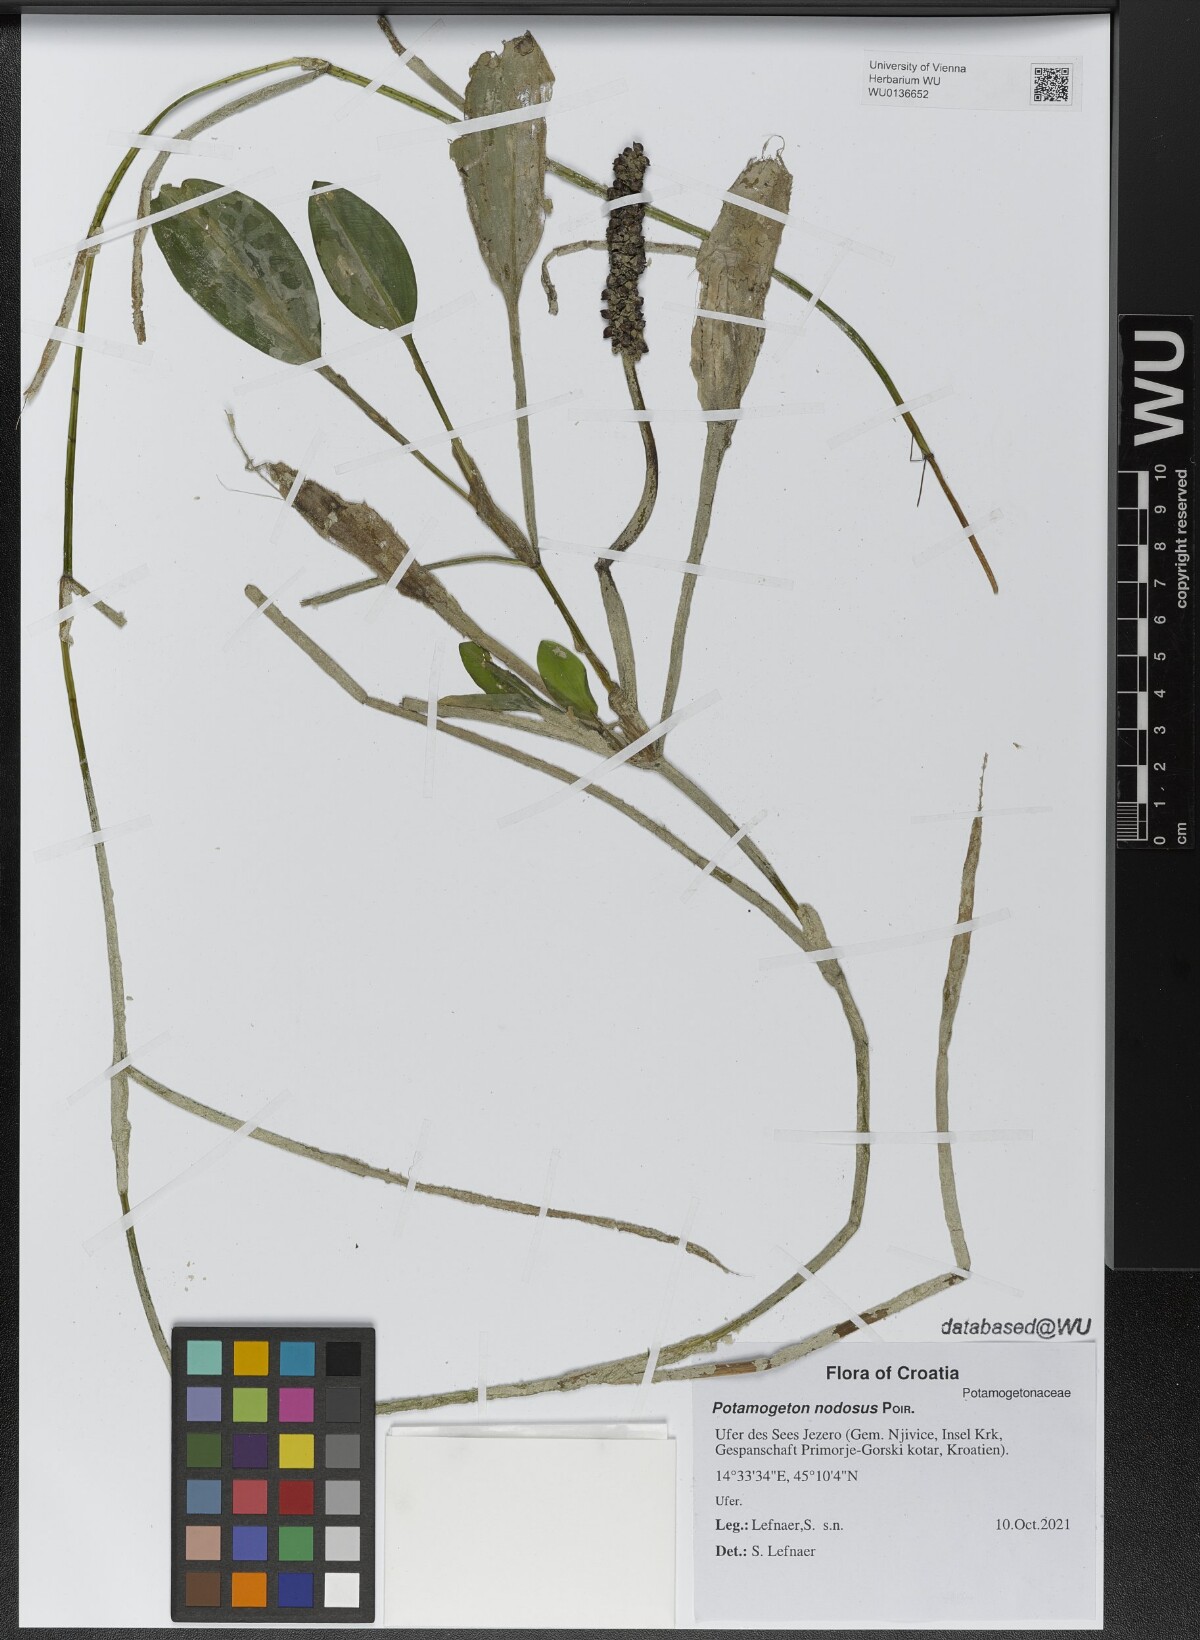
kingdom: Plantae
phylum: Tracheophyta
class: Liliopsida
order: Alismatales
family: Potamogetonaceae
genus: Potamogeton
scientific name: Potamogeton nodosus
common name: Loddon pondweed
